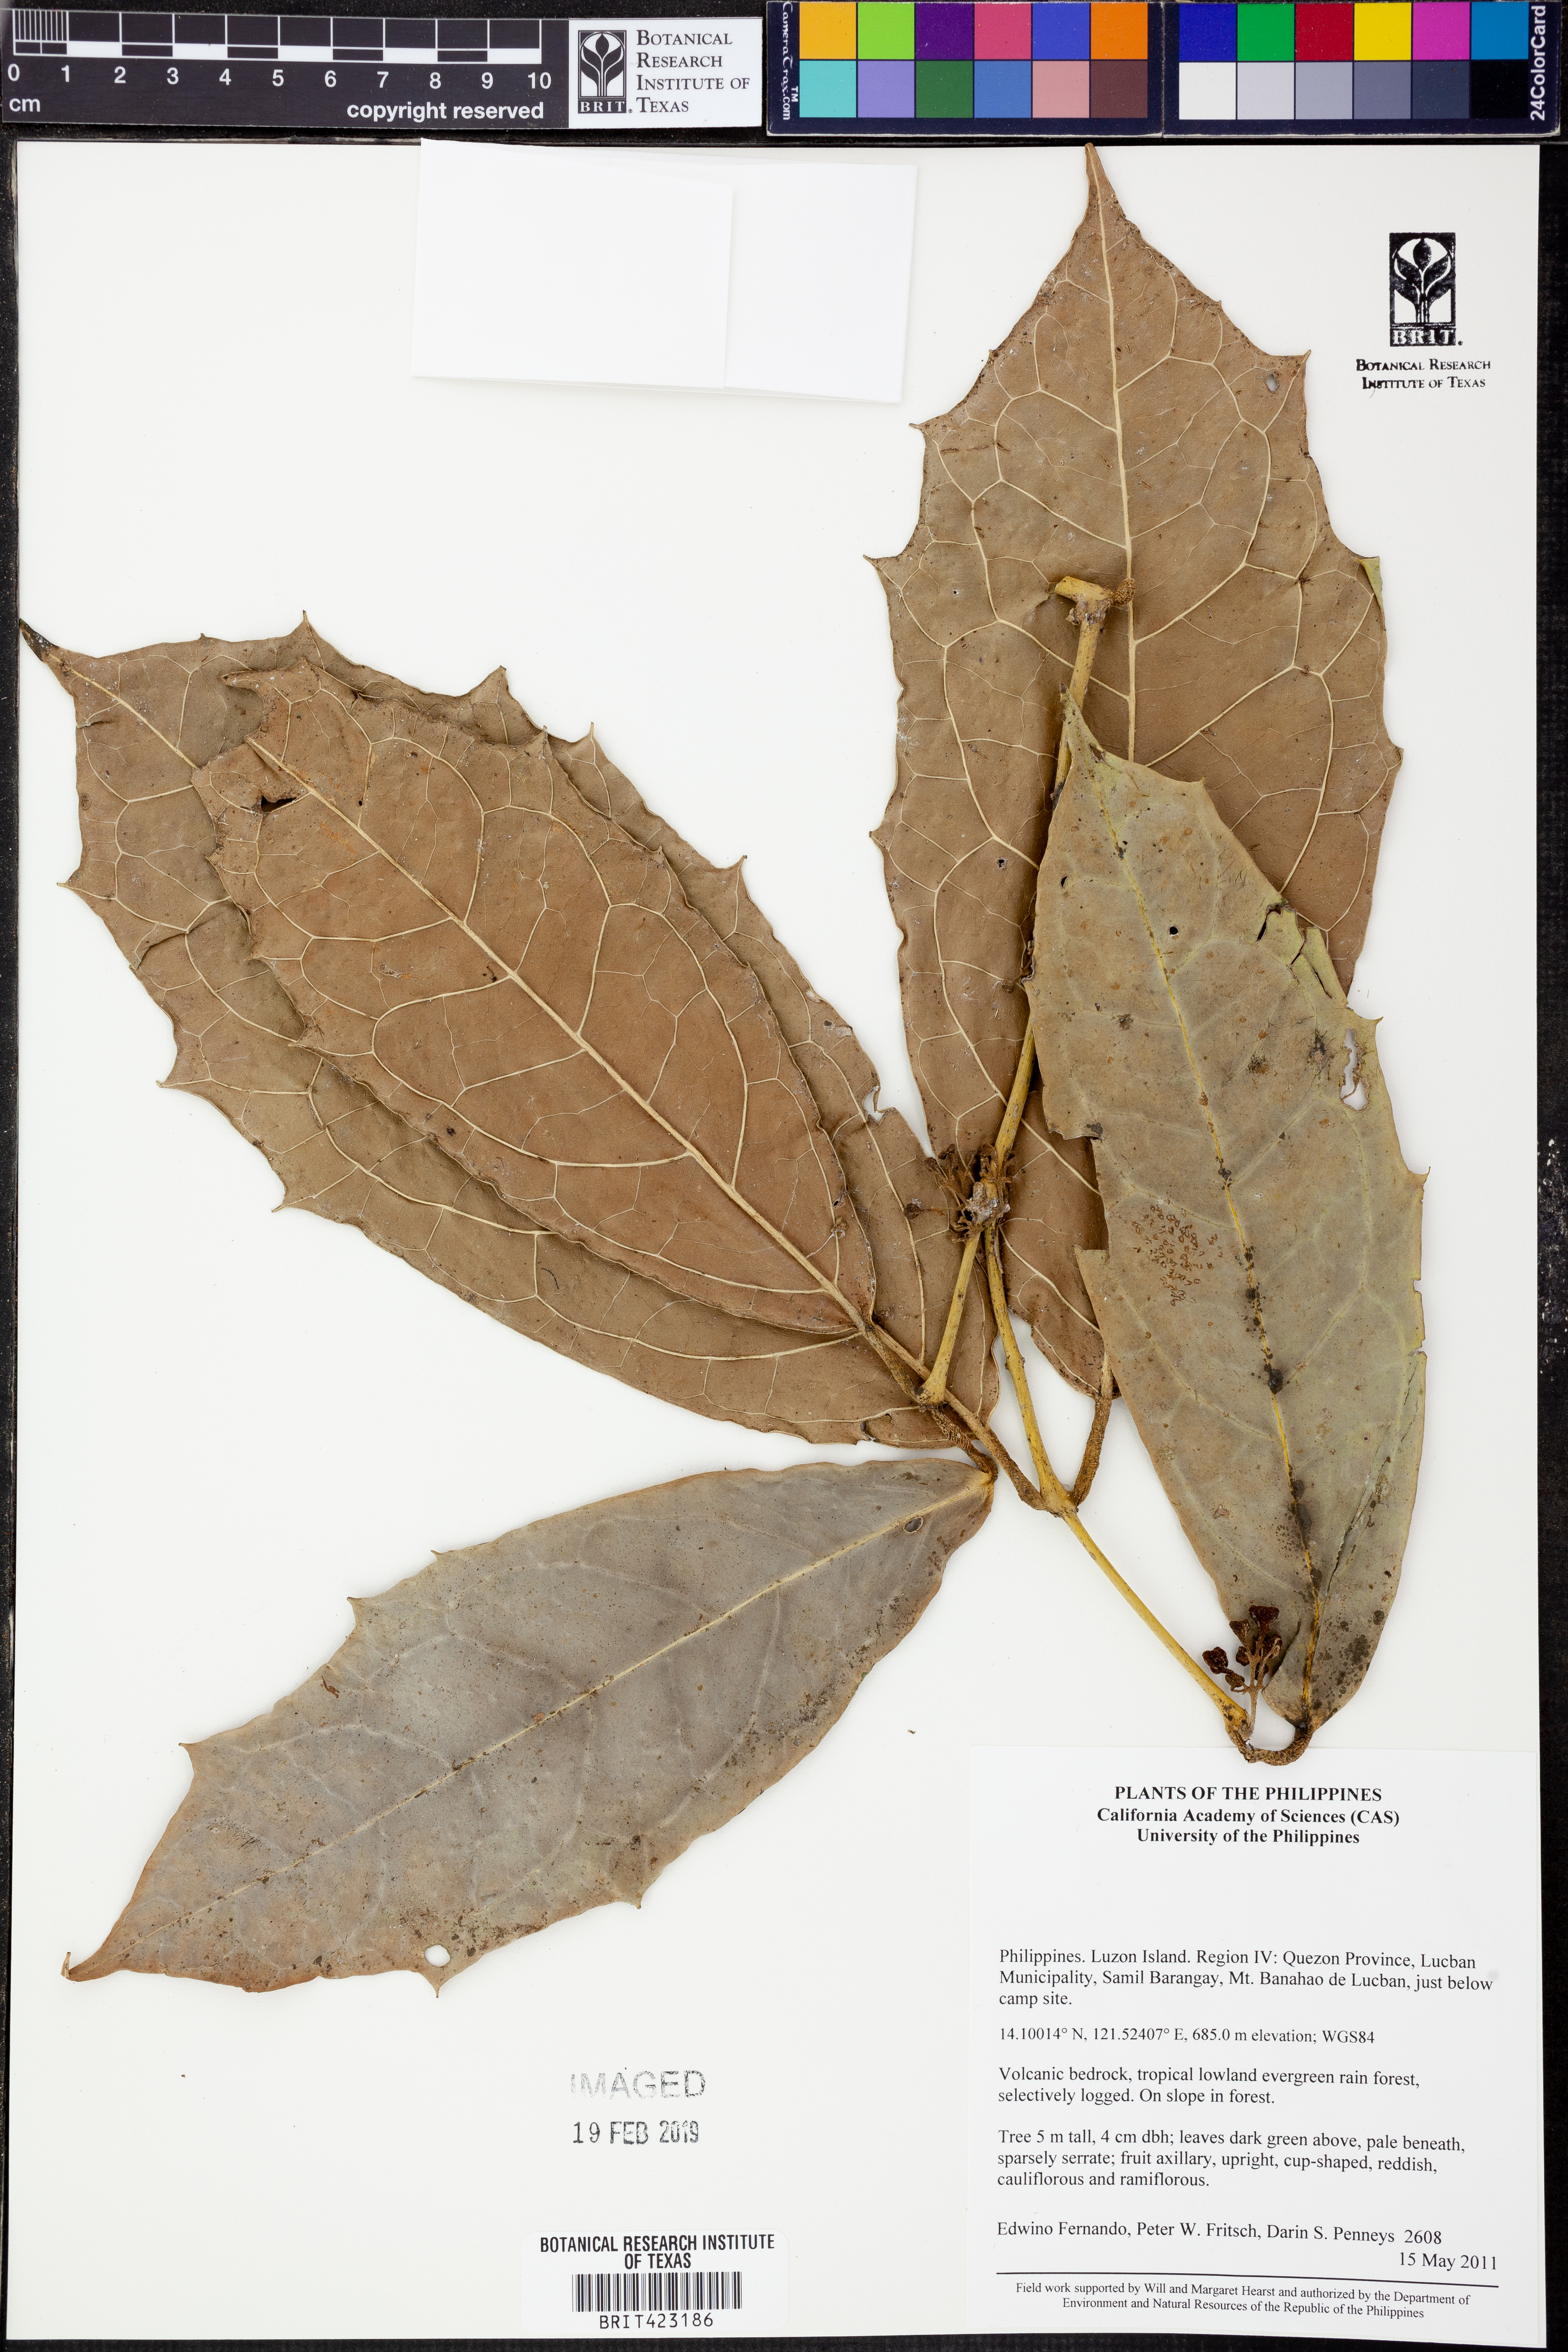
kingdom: Plantae
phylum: Tracheophyta
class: Magnoliopsida
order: Laurales
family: Monimiaceae
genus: Matthaea
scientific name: Matthaea
